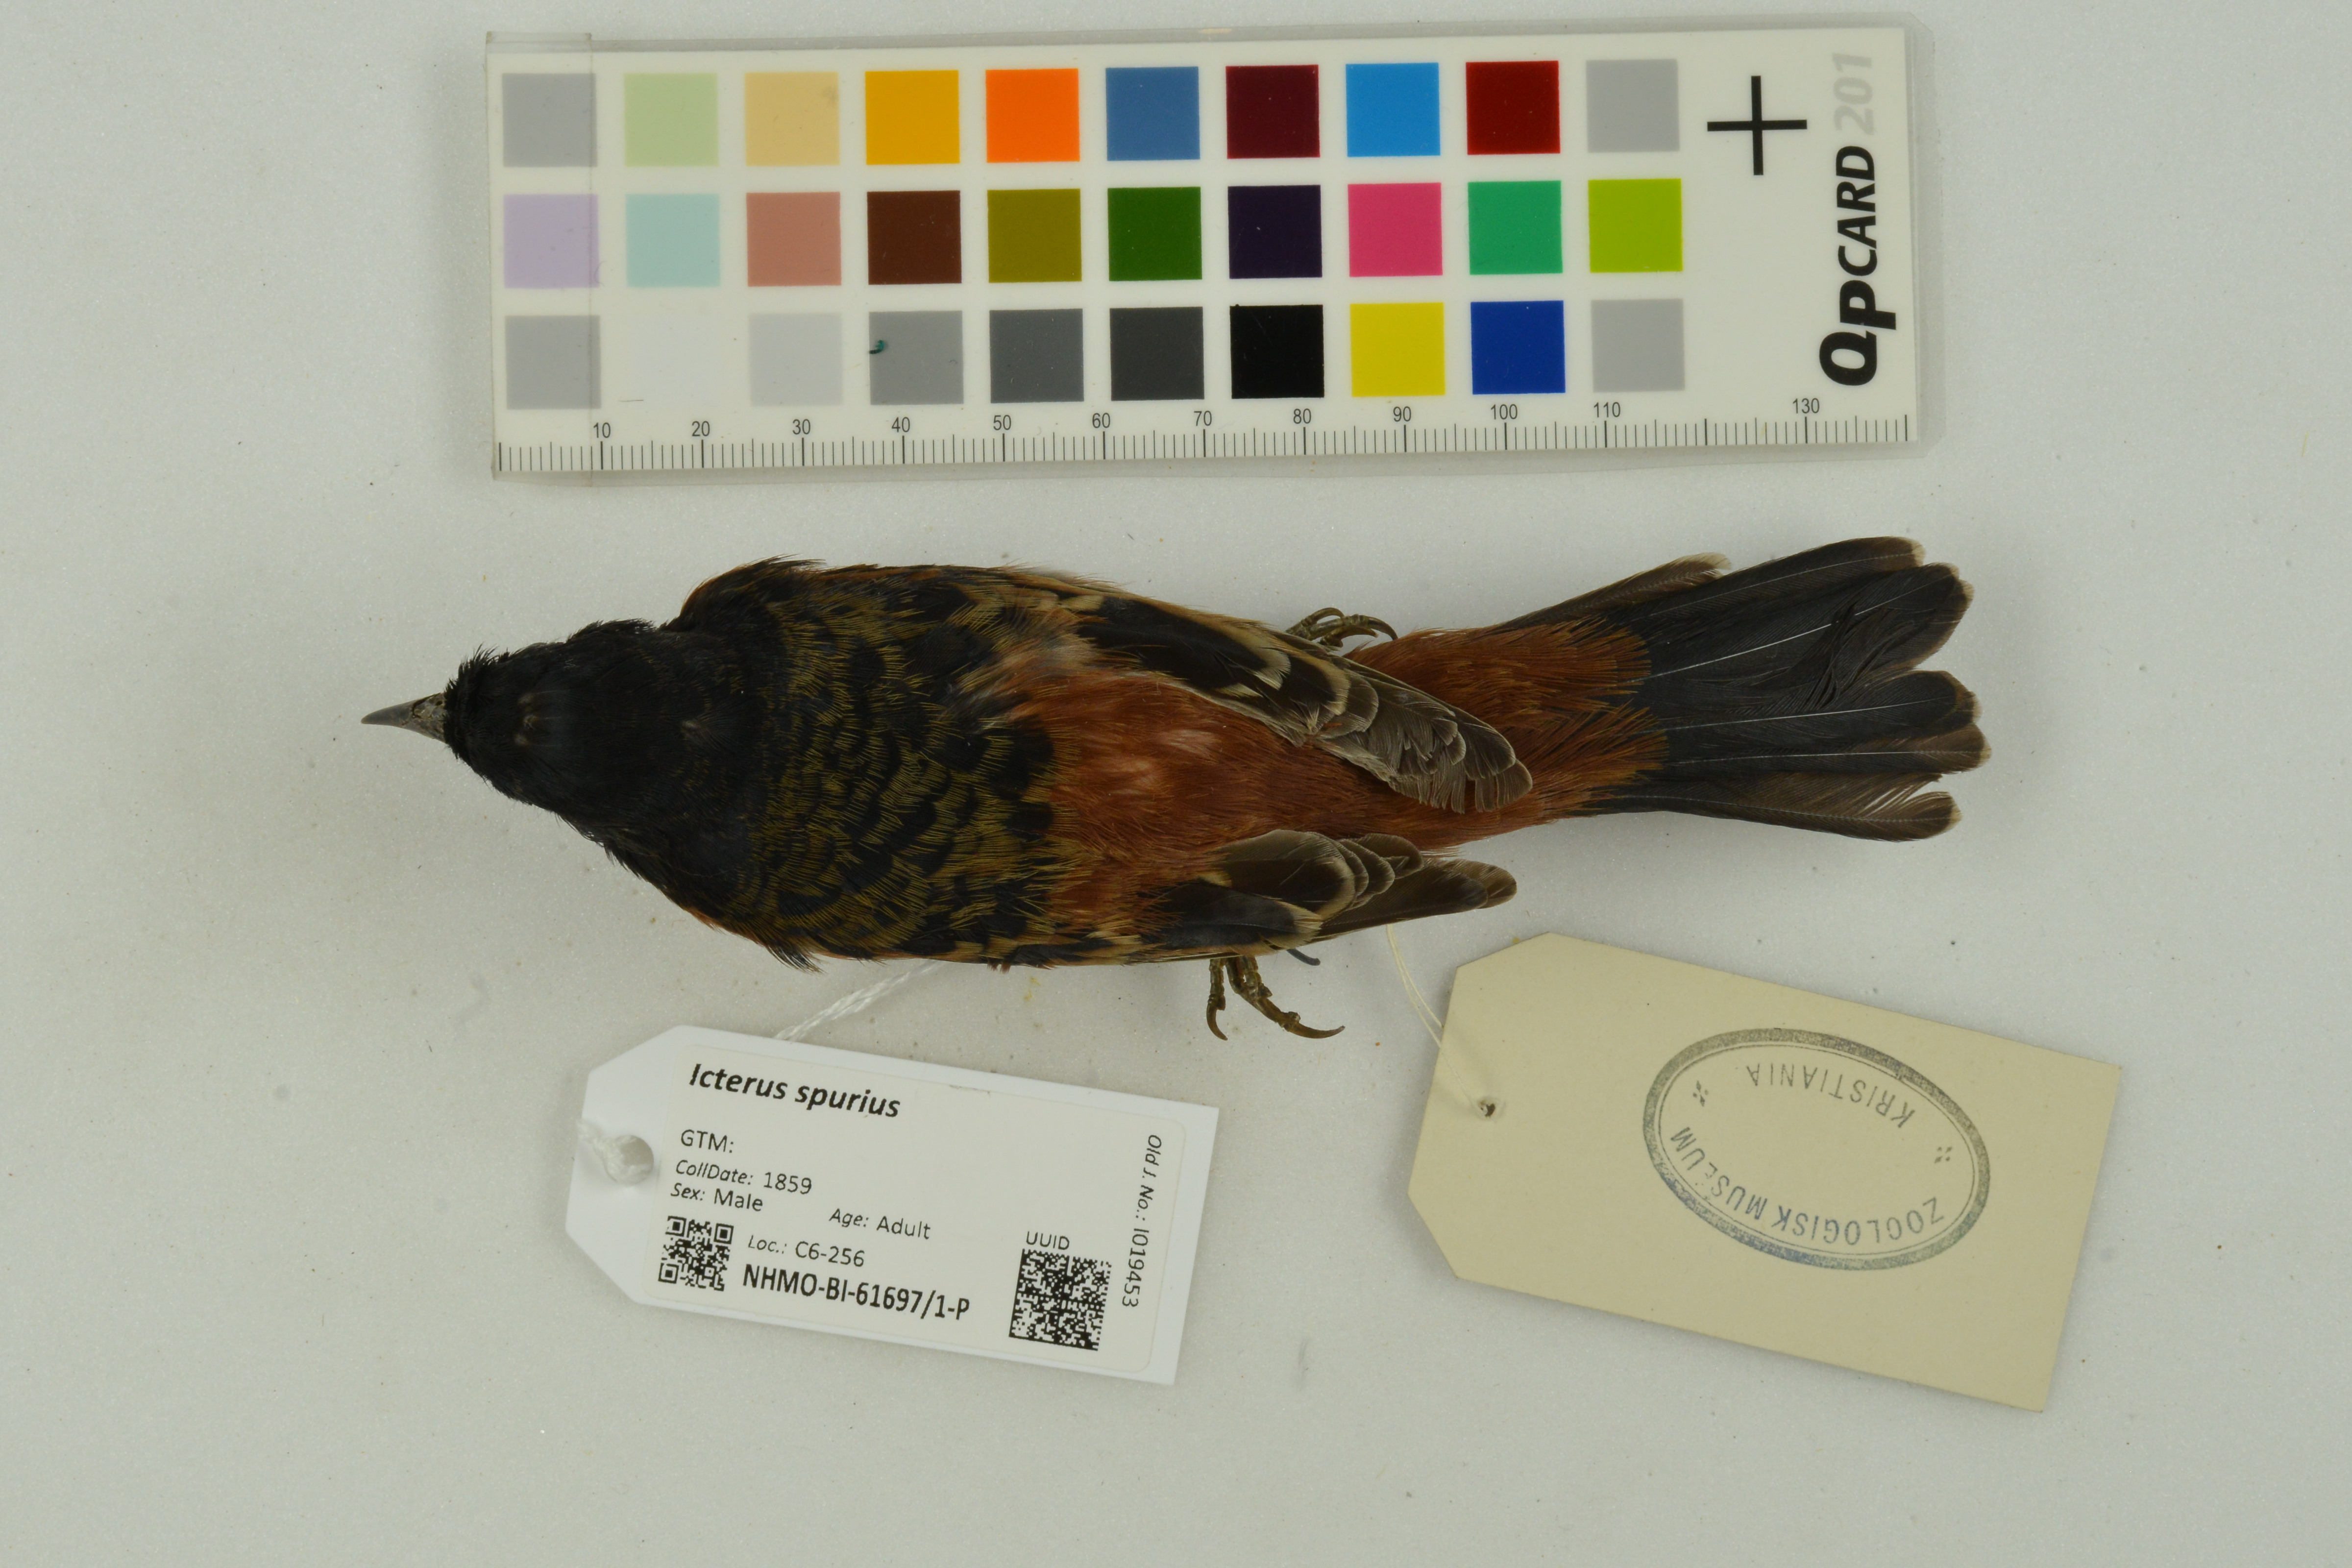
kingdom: Animalia
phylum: Chordata
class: Aves
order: Passeriformes
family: Icteridae
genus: Icterus
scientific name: Icterus spurius
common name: Orchard oriole
